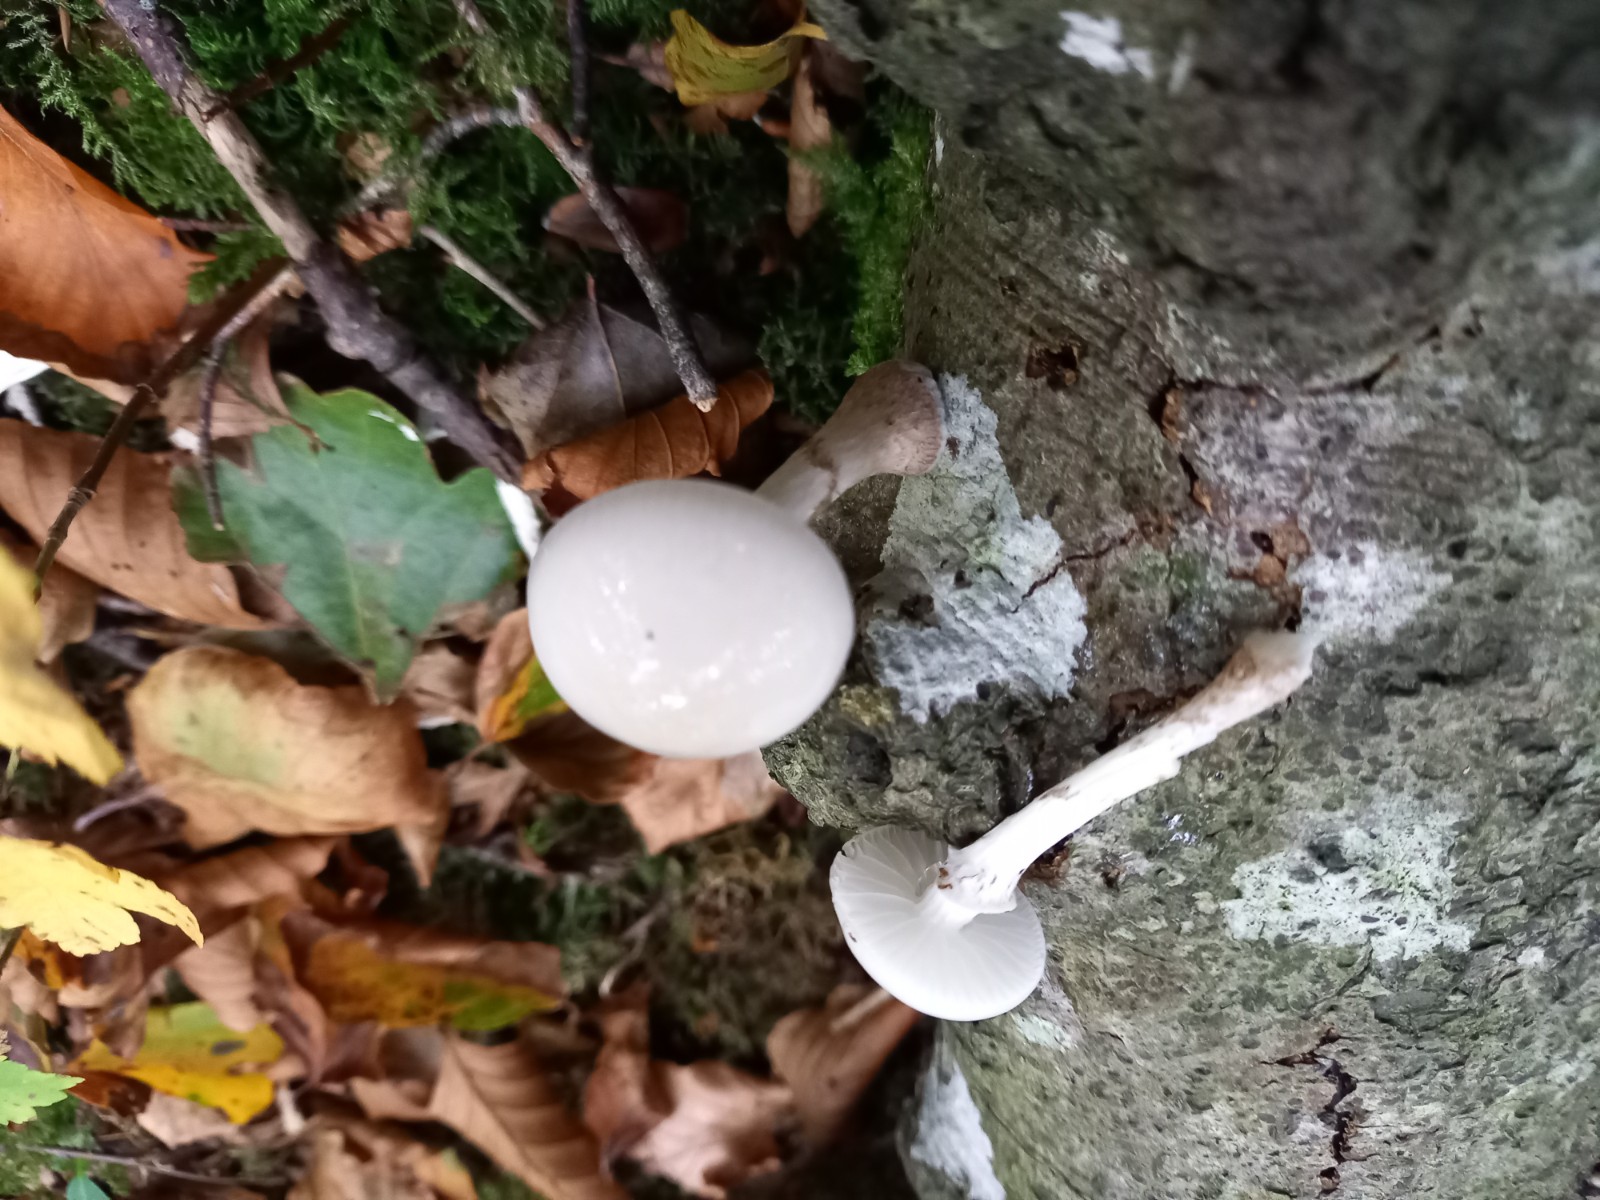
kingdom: Fungi
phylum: Basidiomycota
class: Agaricomycetes
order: Agaricales
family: Physalacriaceae
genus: Mucidula
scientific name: Mucidula mucida
